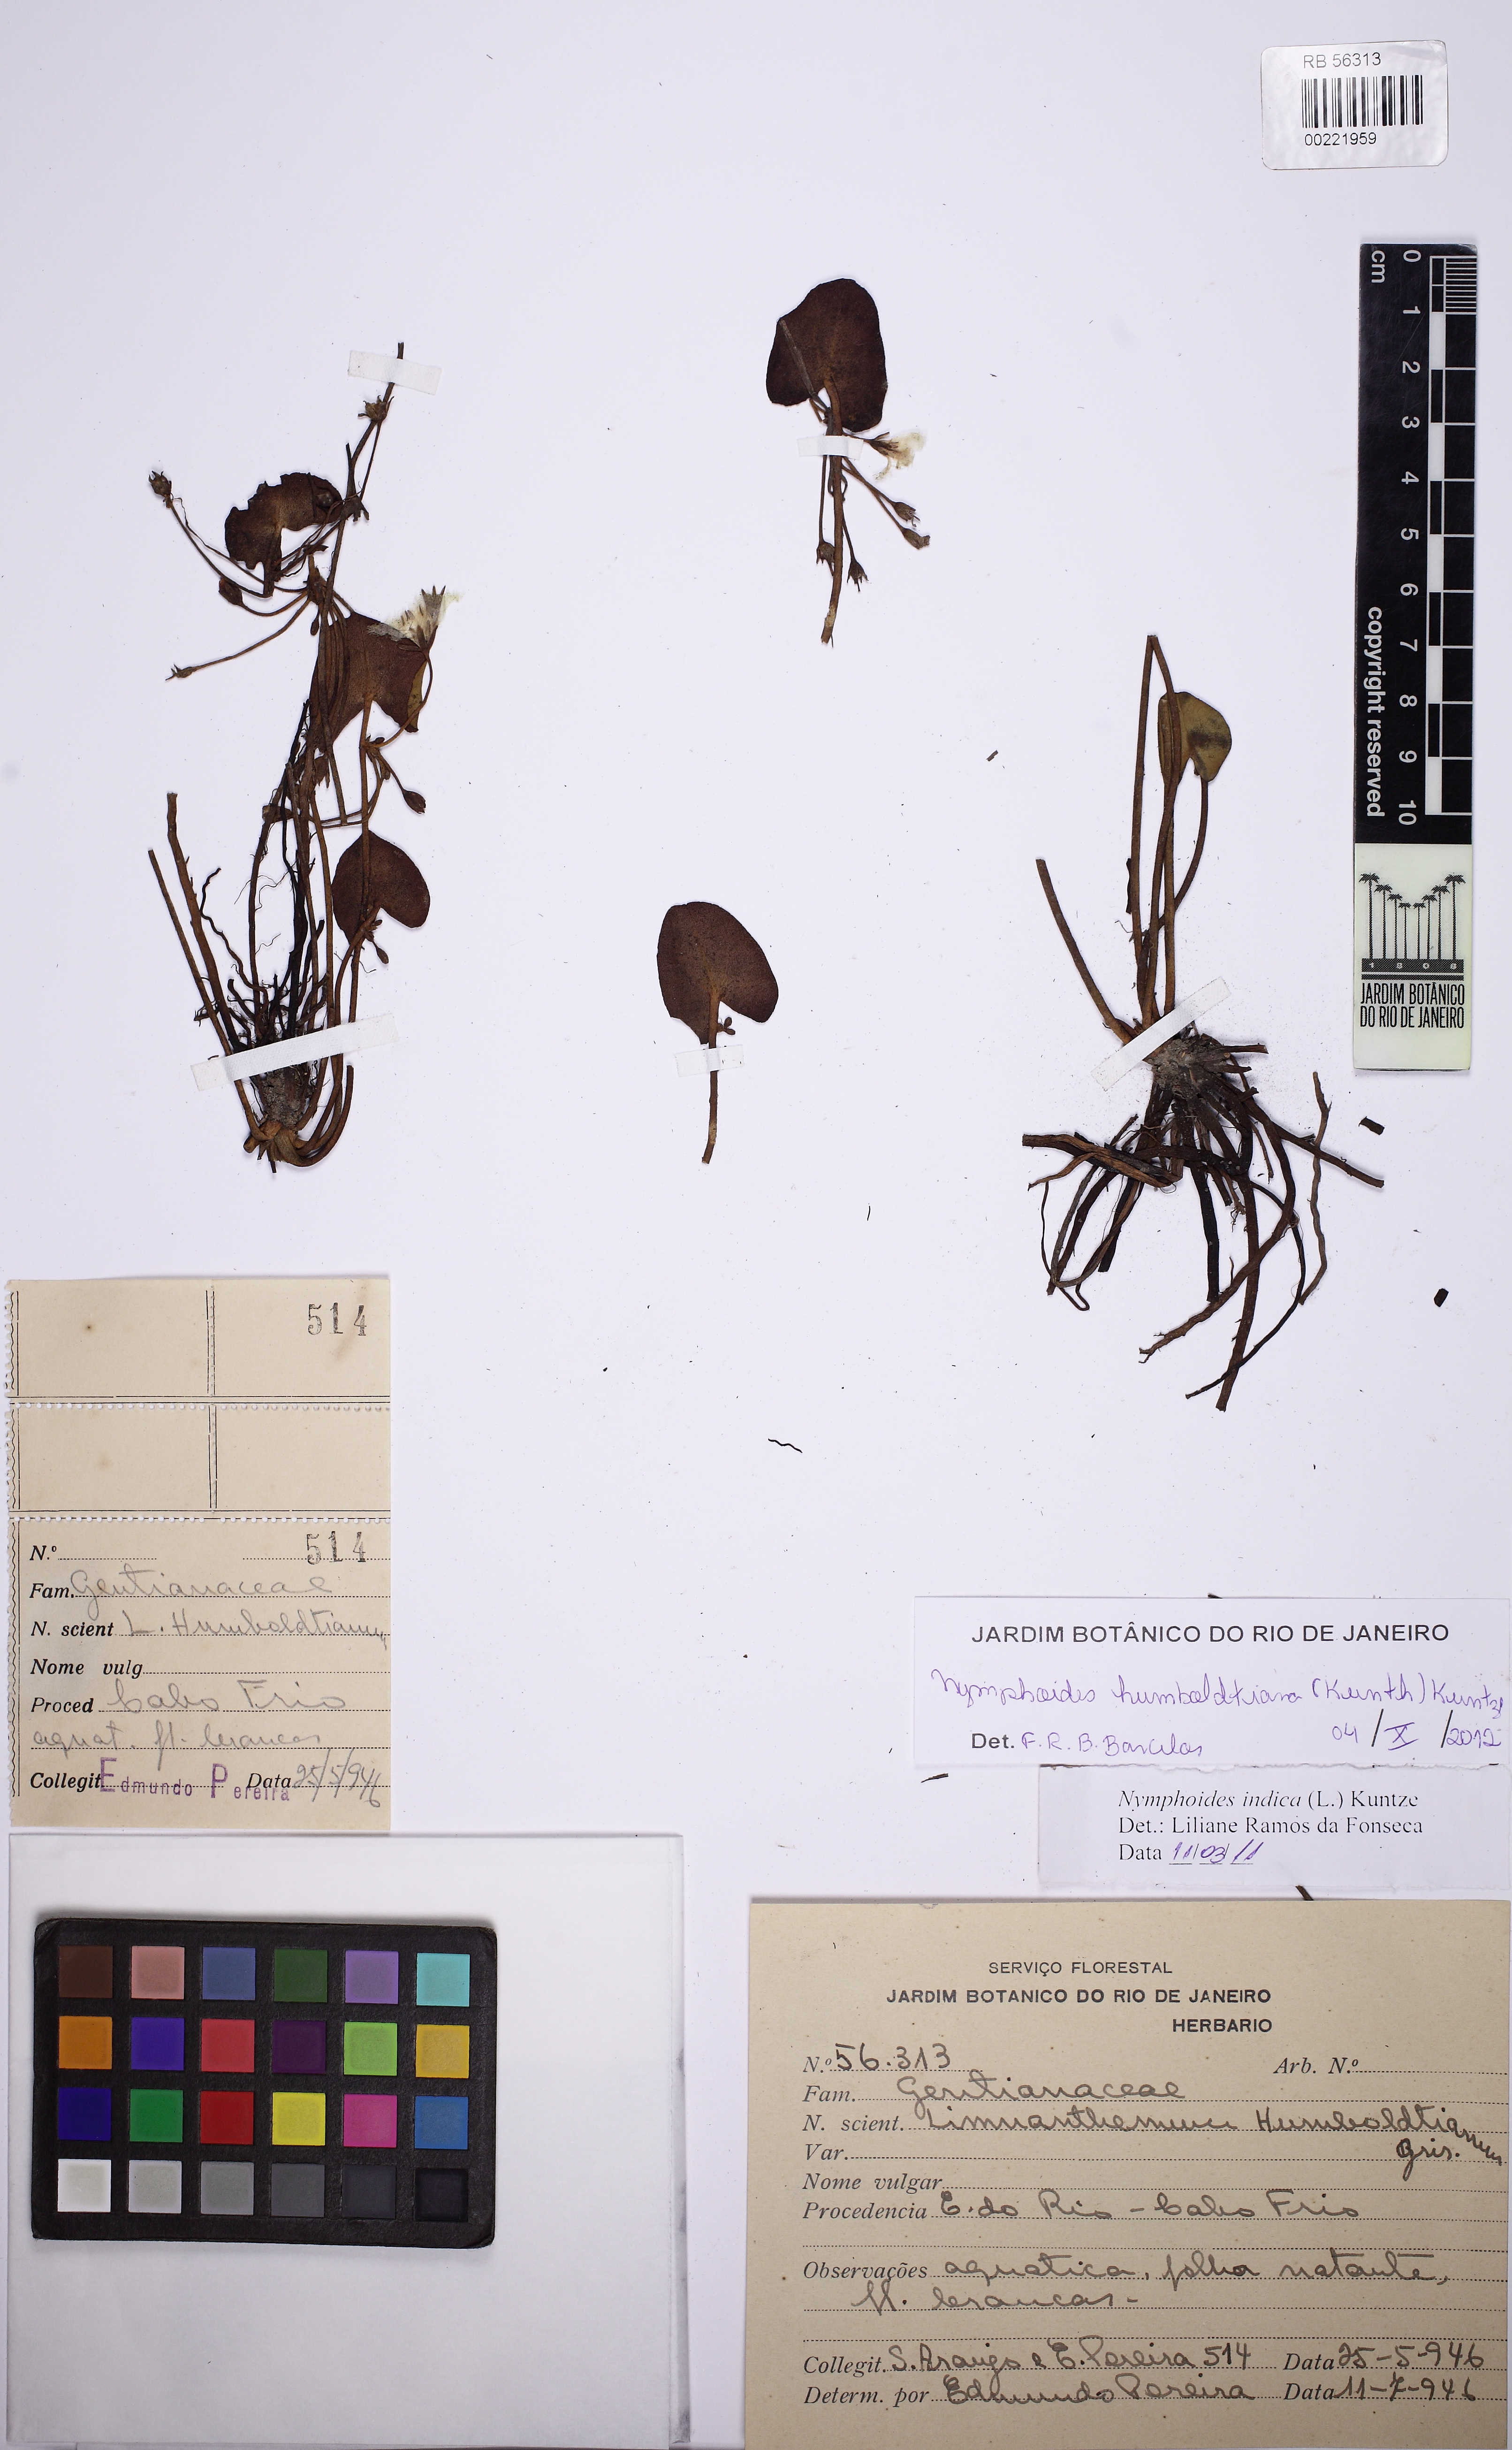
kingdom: Plantae
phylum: Tracheophyta
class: Magnoliopsida
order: Asterales
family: Menyanthaceae
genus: Nymphoides
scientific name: Nymphoides humboldtiana
